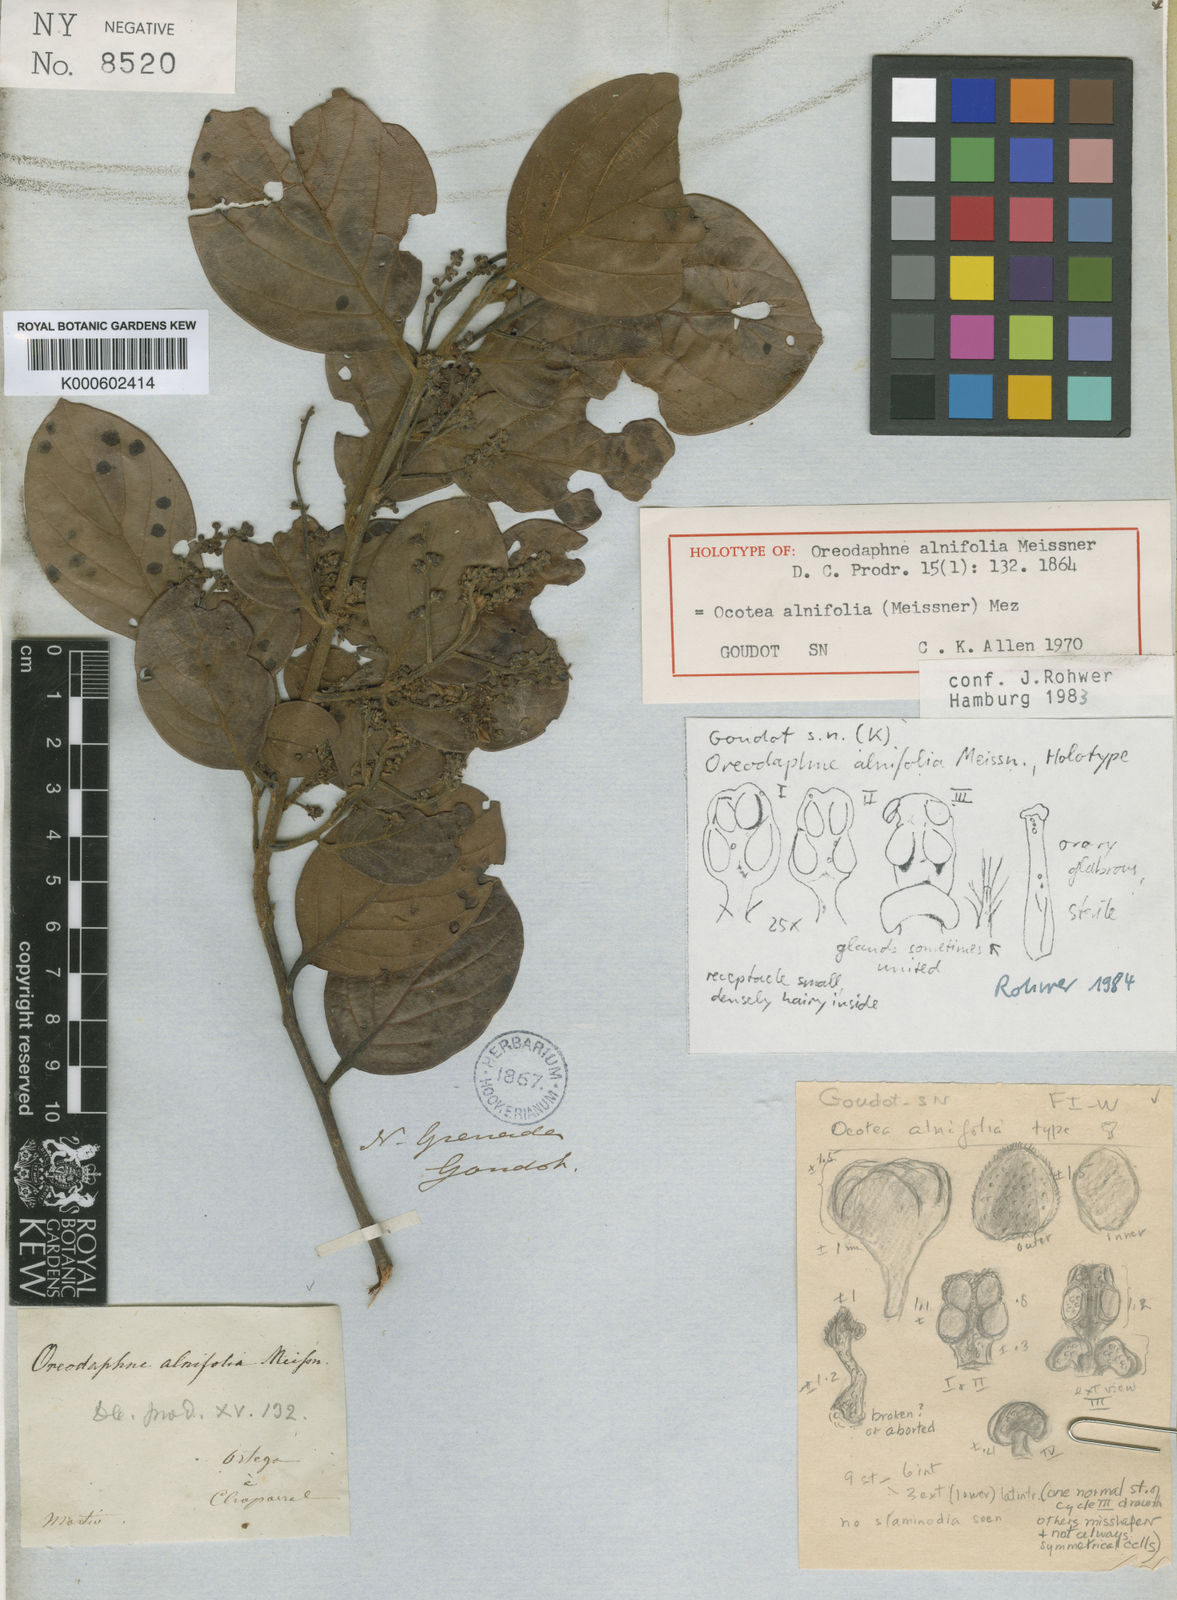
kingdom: Plantae
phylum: Tracheophyta
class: Magnoliopsida
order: Laurales
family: Lauraceae
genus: Ocotea
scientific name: Ocotea alnifolia
